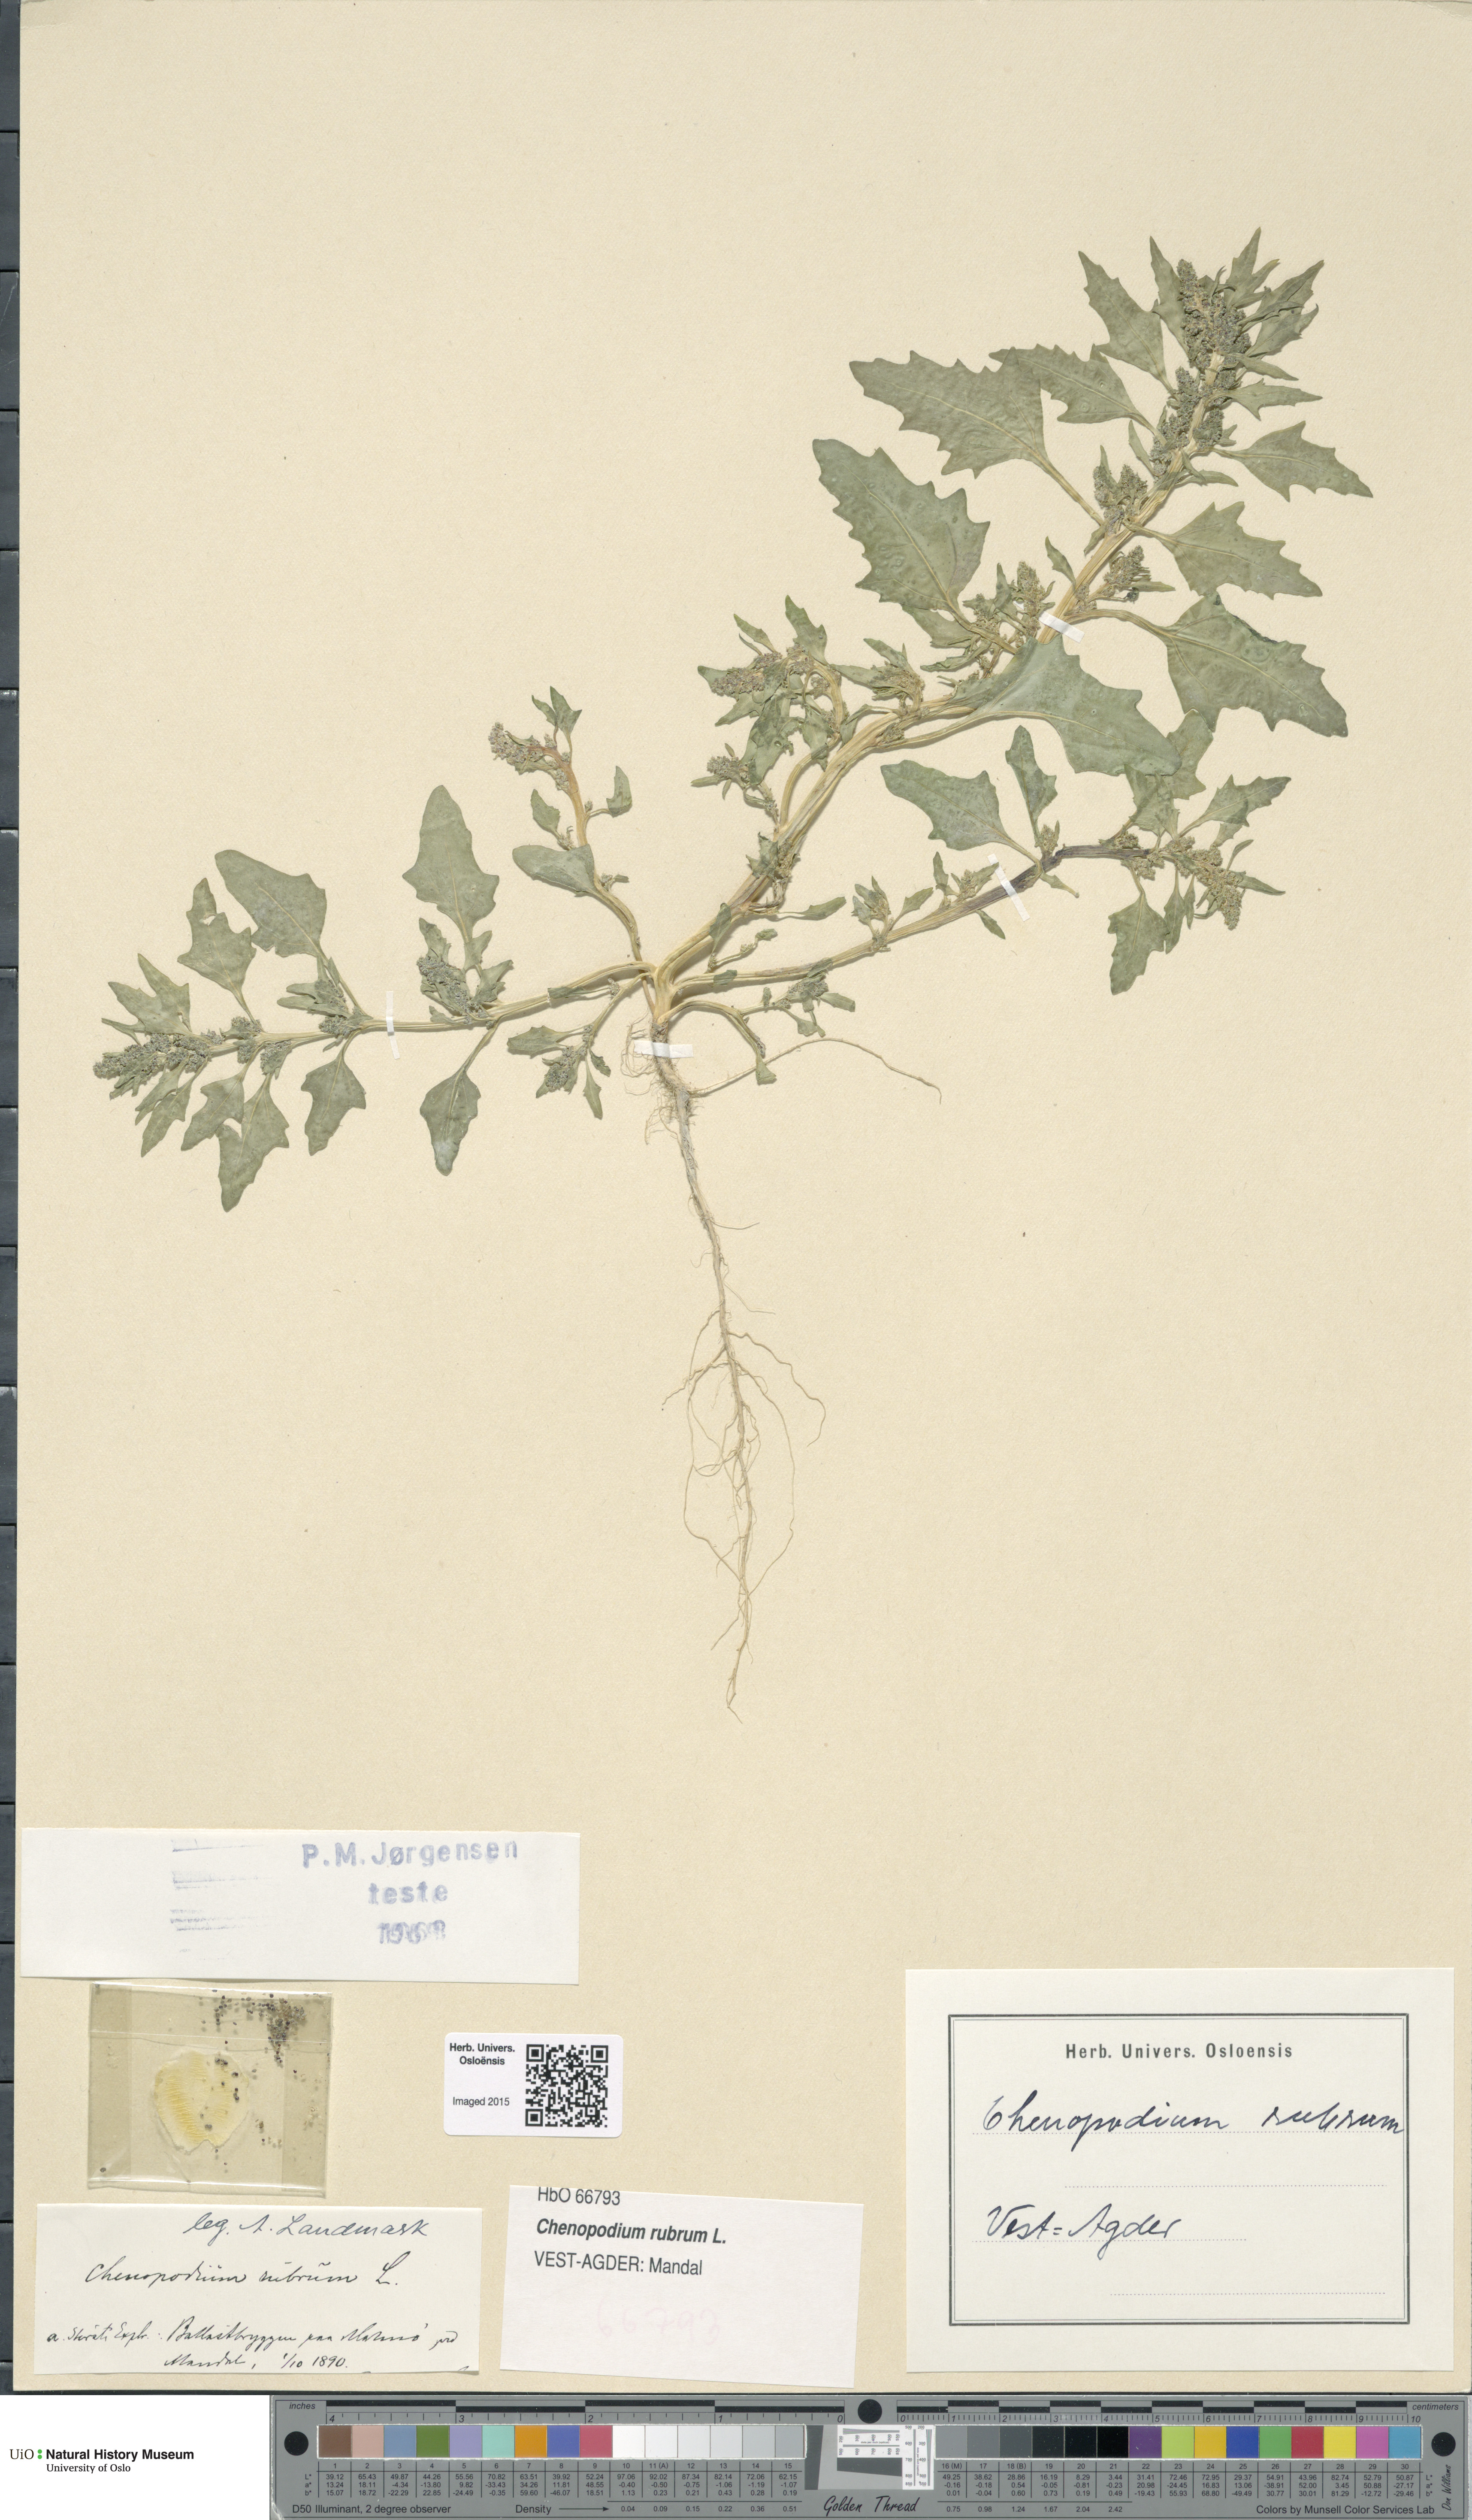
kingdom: Plantae
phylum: Tracheophyta
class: Magnoliopsida
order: Caryophyllales
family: Amaranthaceae
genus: Oxybasis
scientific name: Oxybasis rubra
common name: Red goosefoot
